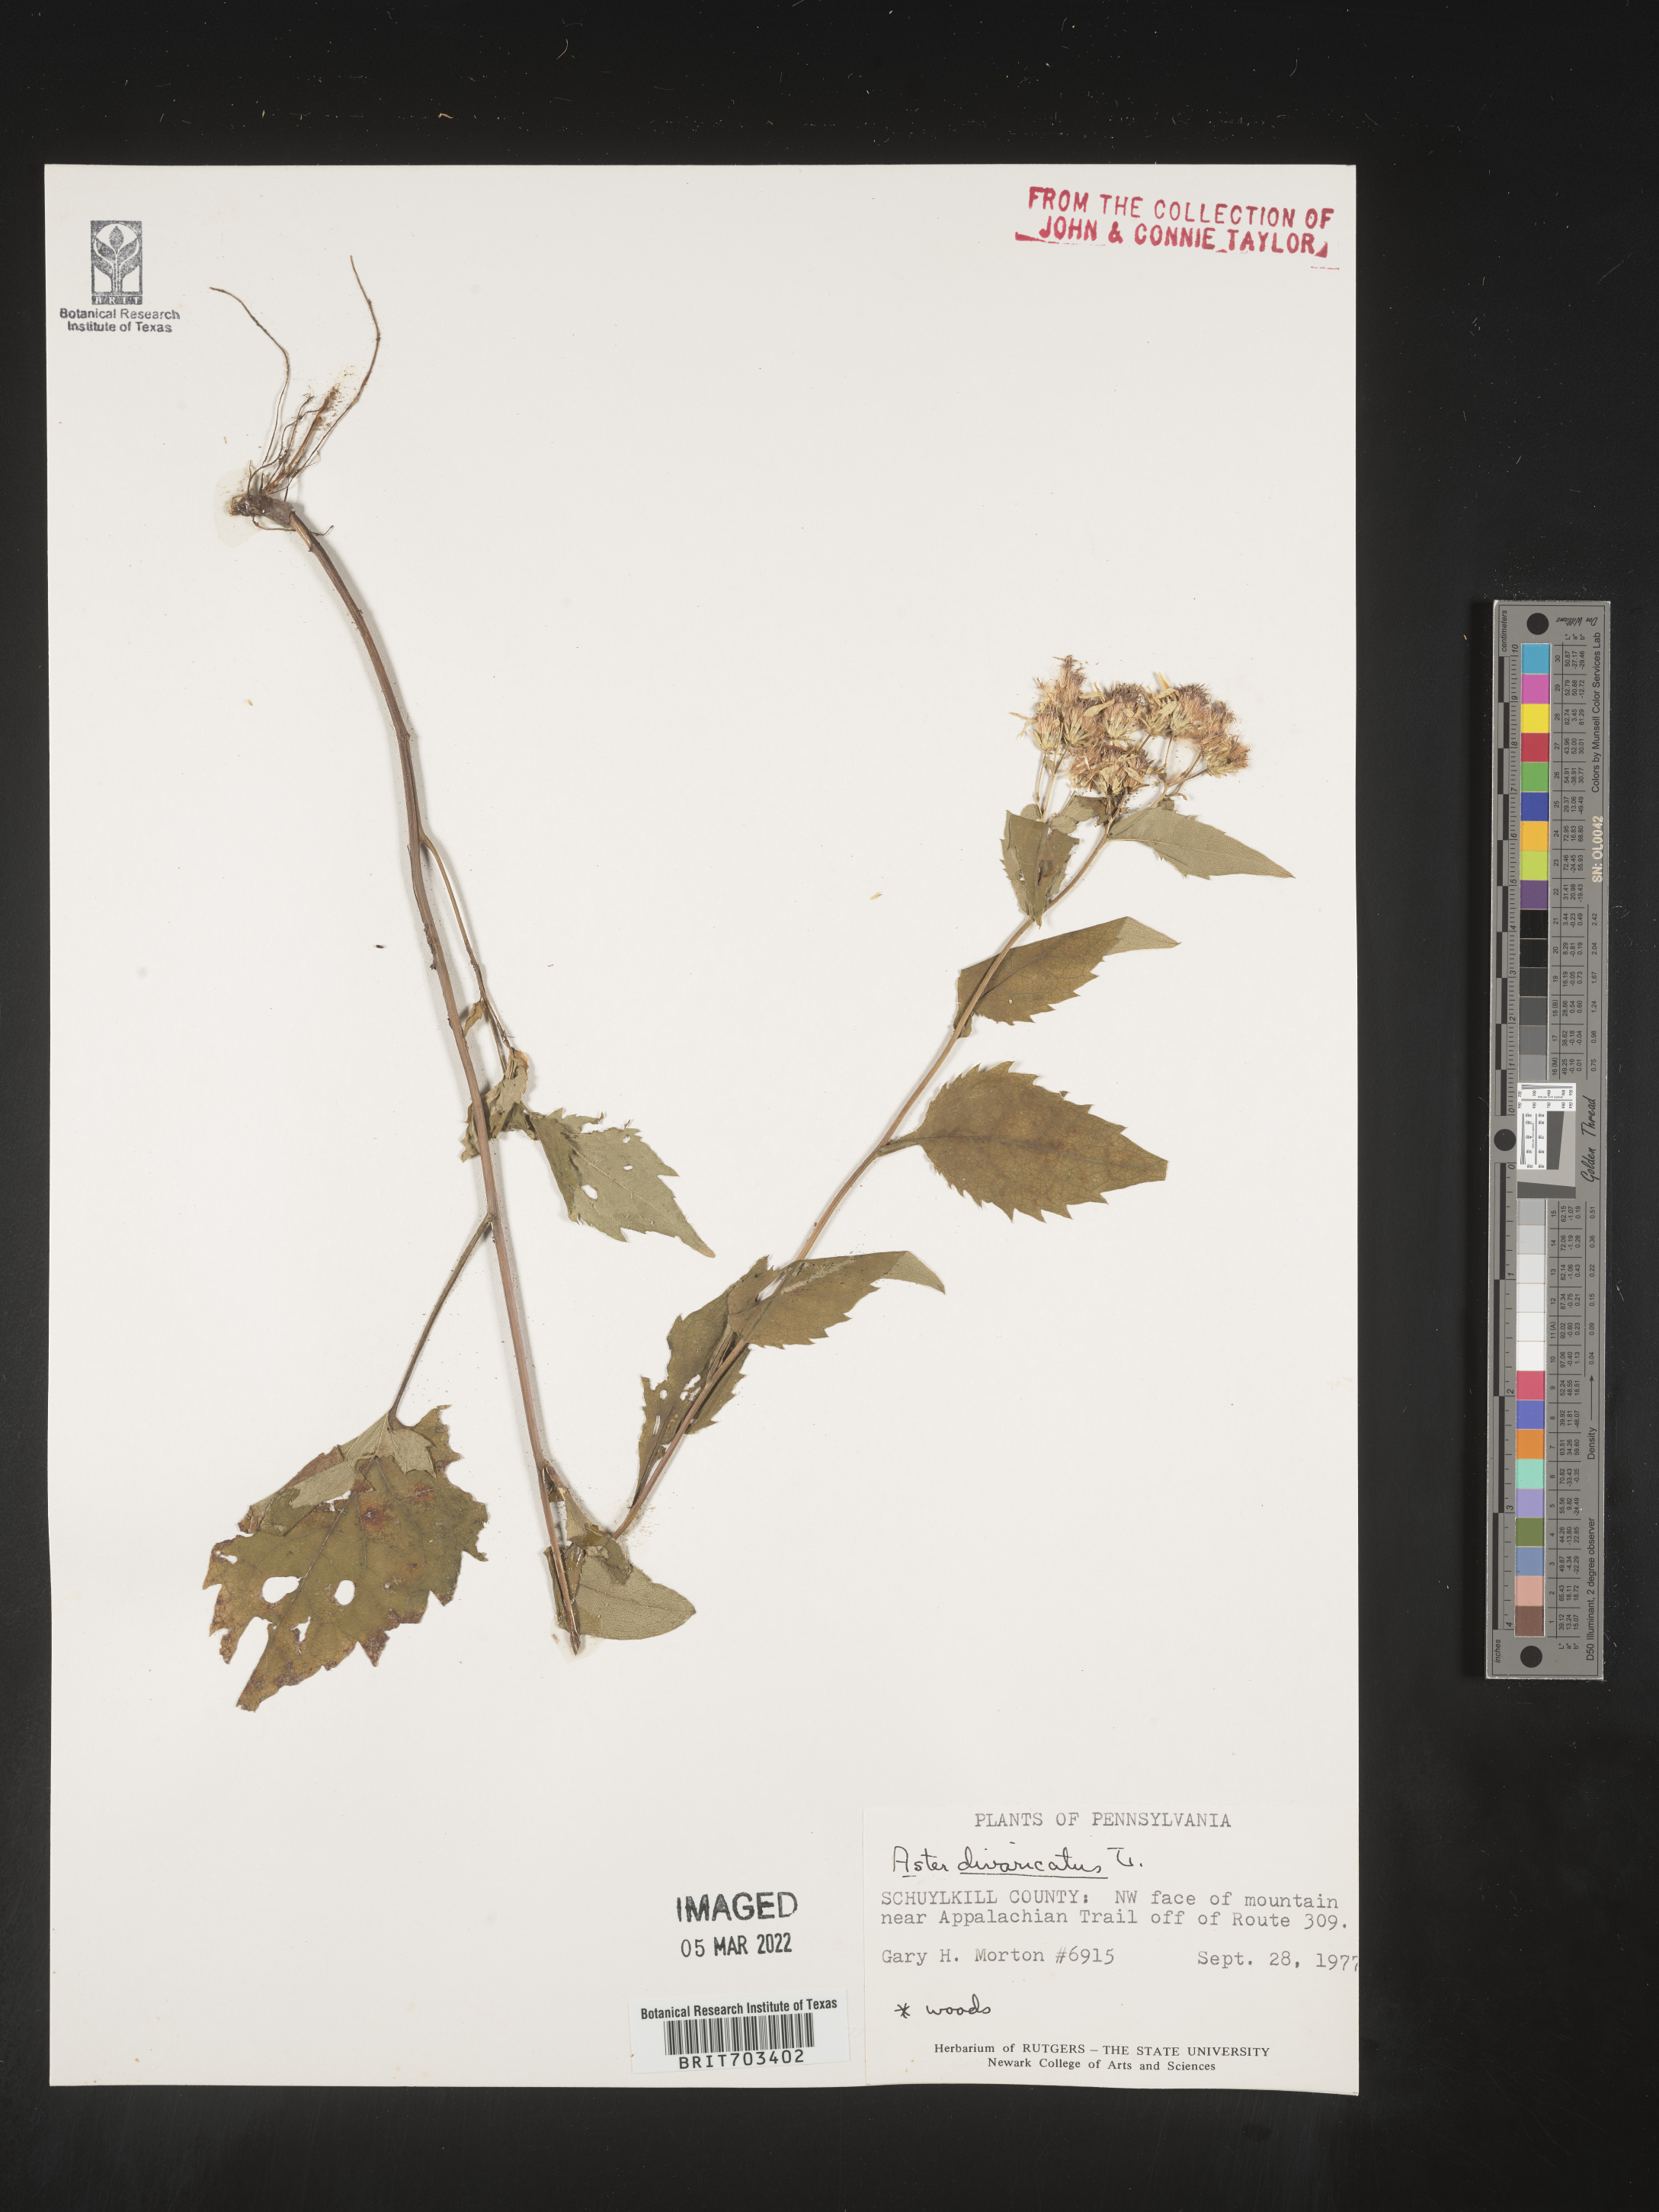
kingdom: Plantae
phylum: Tracheophyta
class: Magnoliopsida
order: Asterales
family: Asteraceae
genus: Eurybia
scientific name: Eurybia divaricata
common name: White wood aster
